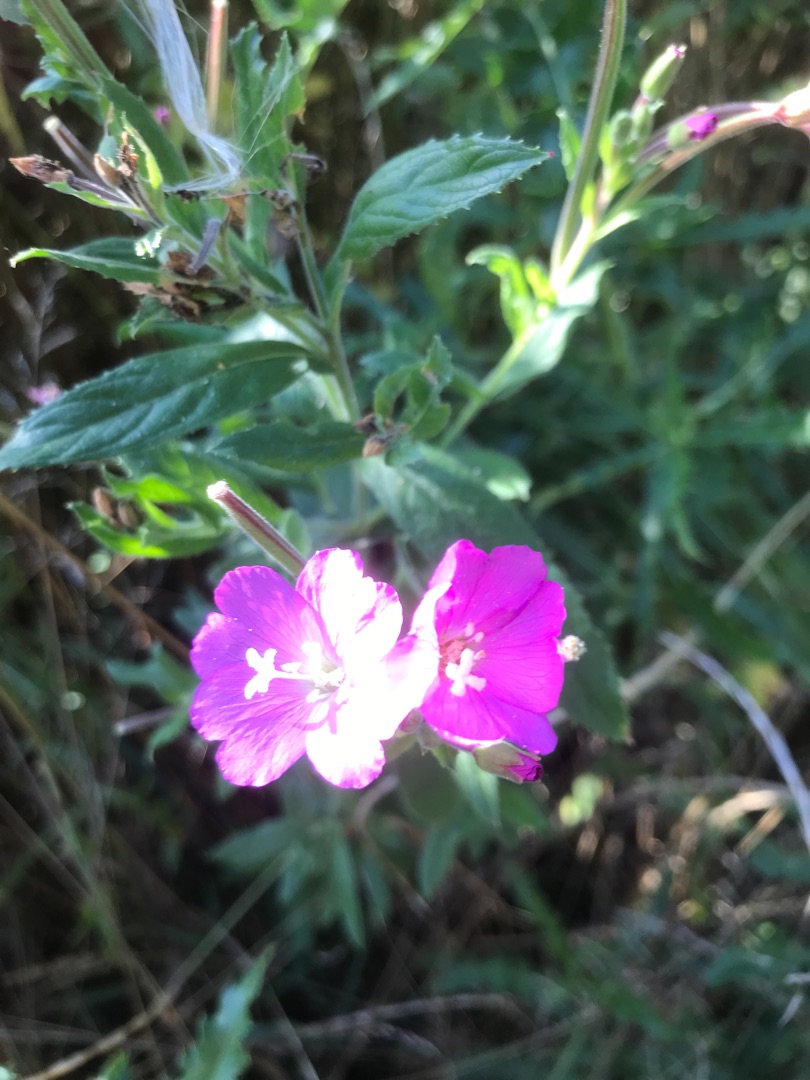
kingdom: Plantae
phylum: Tracheophyta
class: Magnoliopsida
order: Myrtales
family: Onagraceae
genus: Epilobium
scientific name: Epilobium hirsutum
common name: Lådden dueurt
